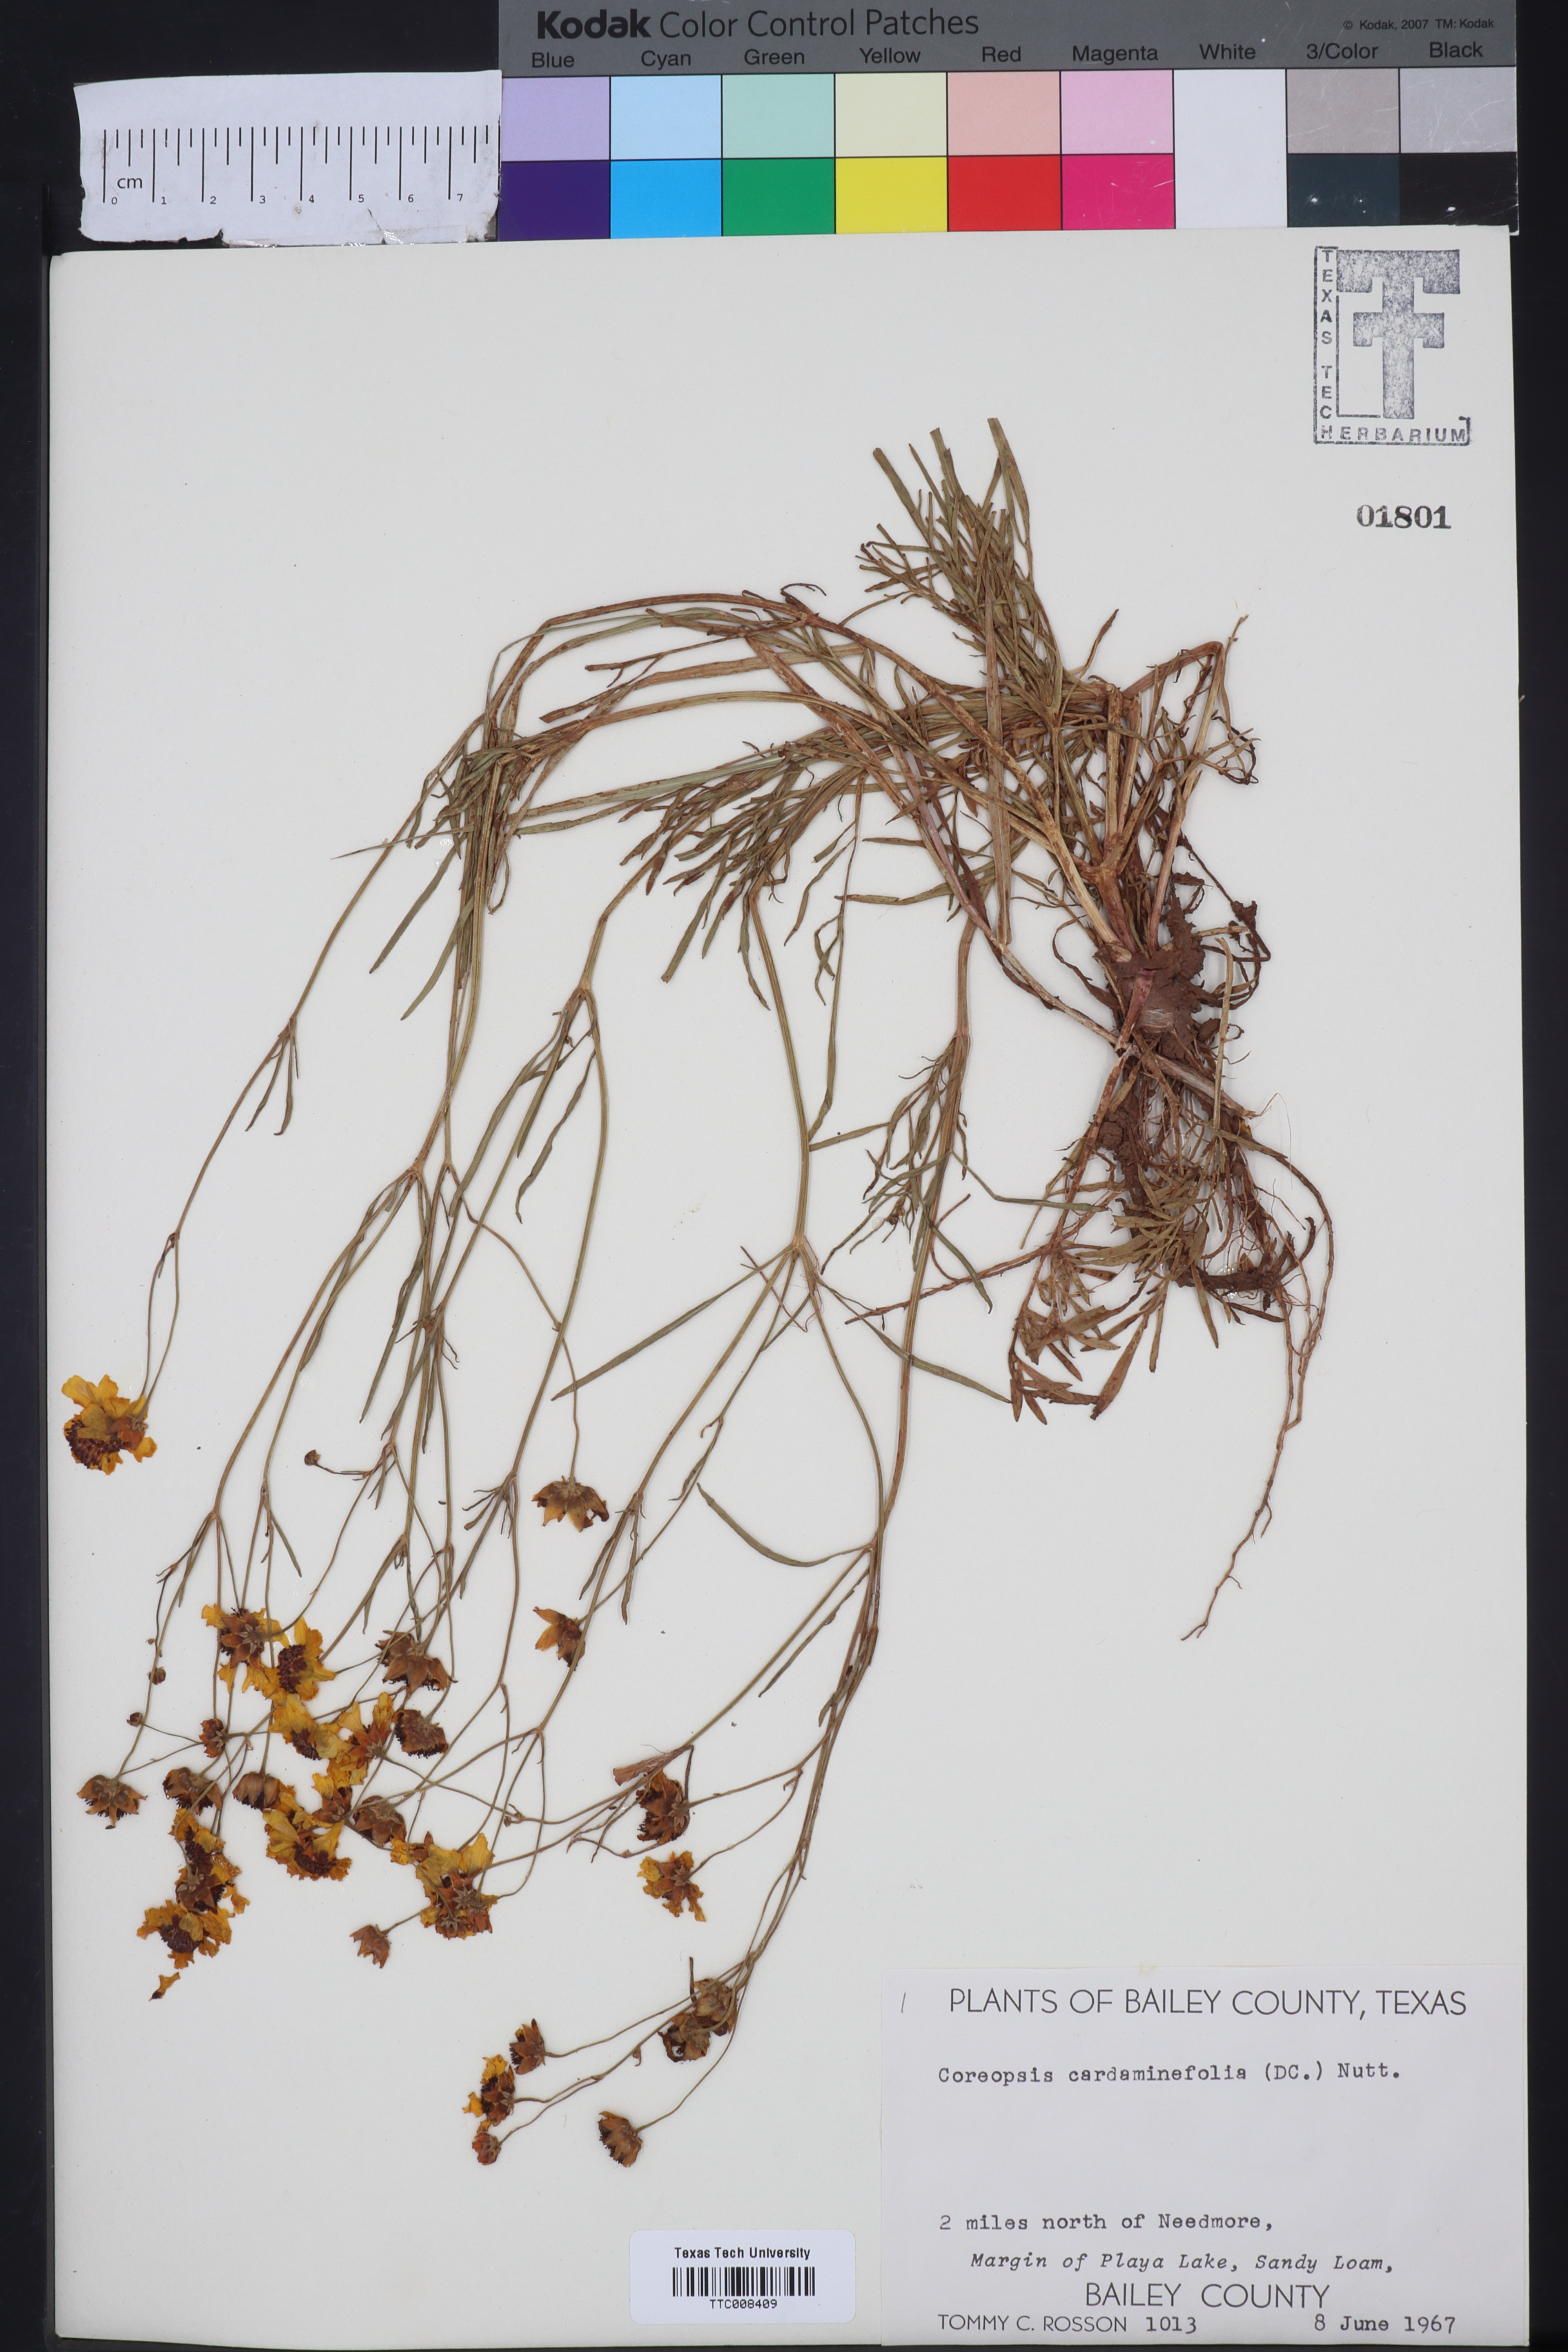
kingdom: Plantae
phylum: Tracheophyta
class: Magnoliopsida
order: Asterales
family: Asteraceae
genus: Coreopsis
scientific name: Coreopsis tinctoria
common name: Garden tickseed
